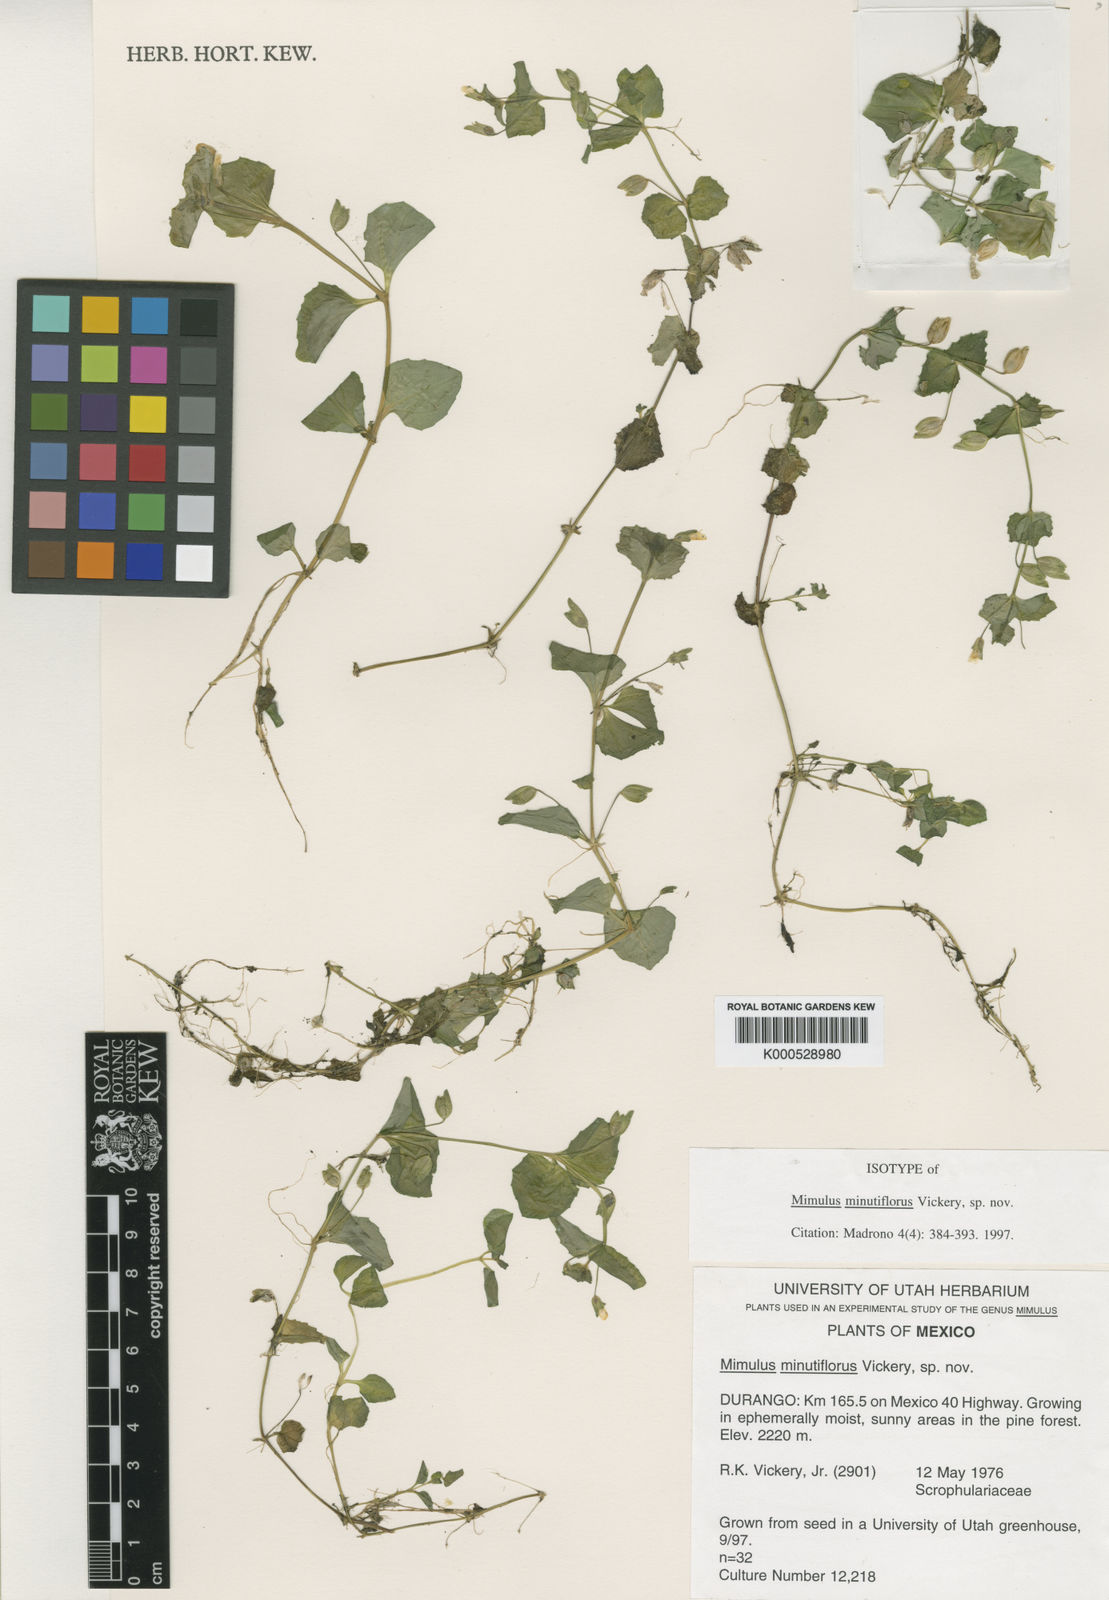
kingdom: Plantae
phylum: Tracheophyta
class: Magnoliopsida
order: Lamiales
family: Phrymaceae
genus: Erythranthe
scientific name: Erythranthe calciphila
